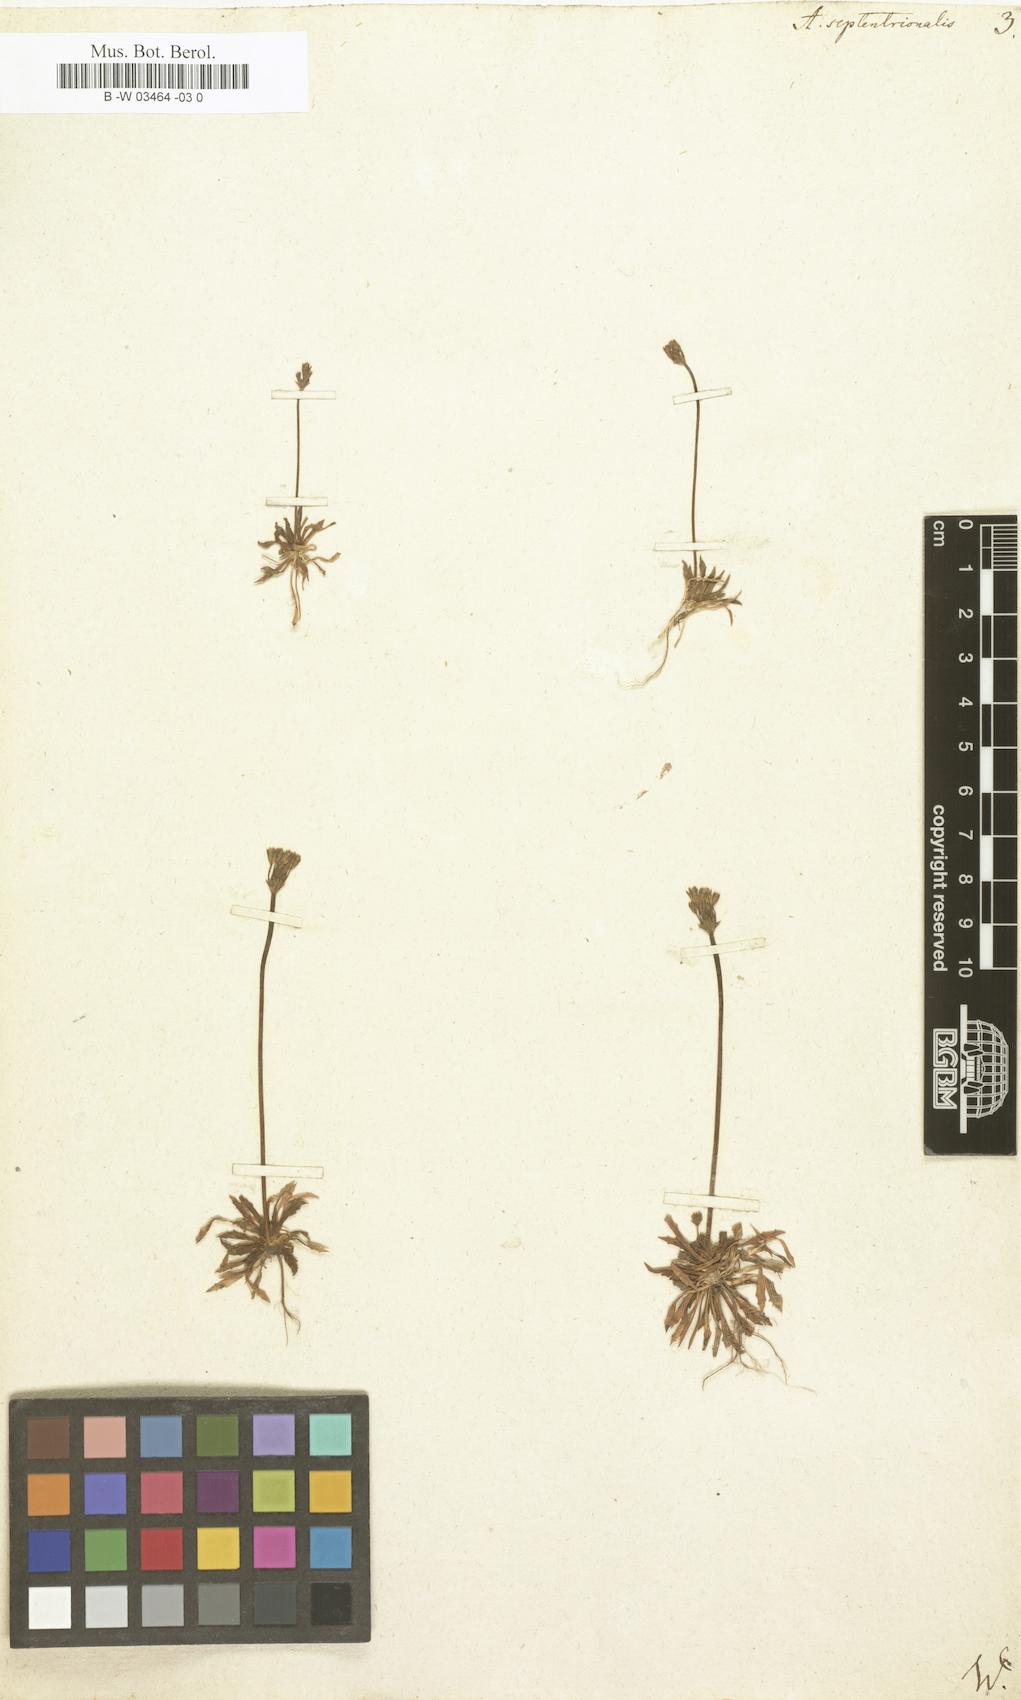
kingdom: Plantae
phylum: Tracheophyta
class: Magnoliopsida
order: Ericales
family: Primulaceae
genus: Androsace
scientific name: Androsace septentrionalis
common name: Hairy northern fairy-candelabra
